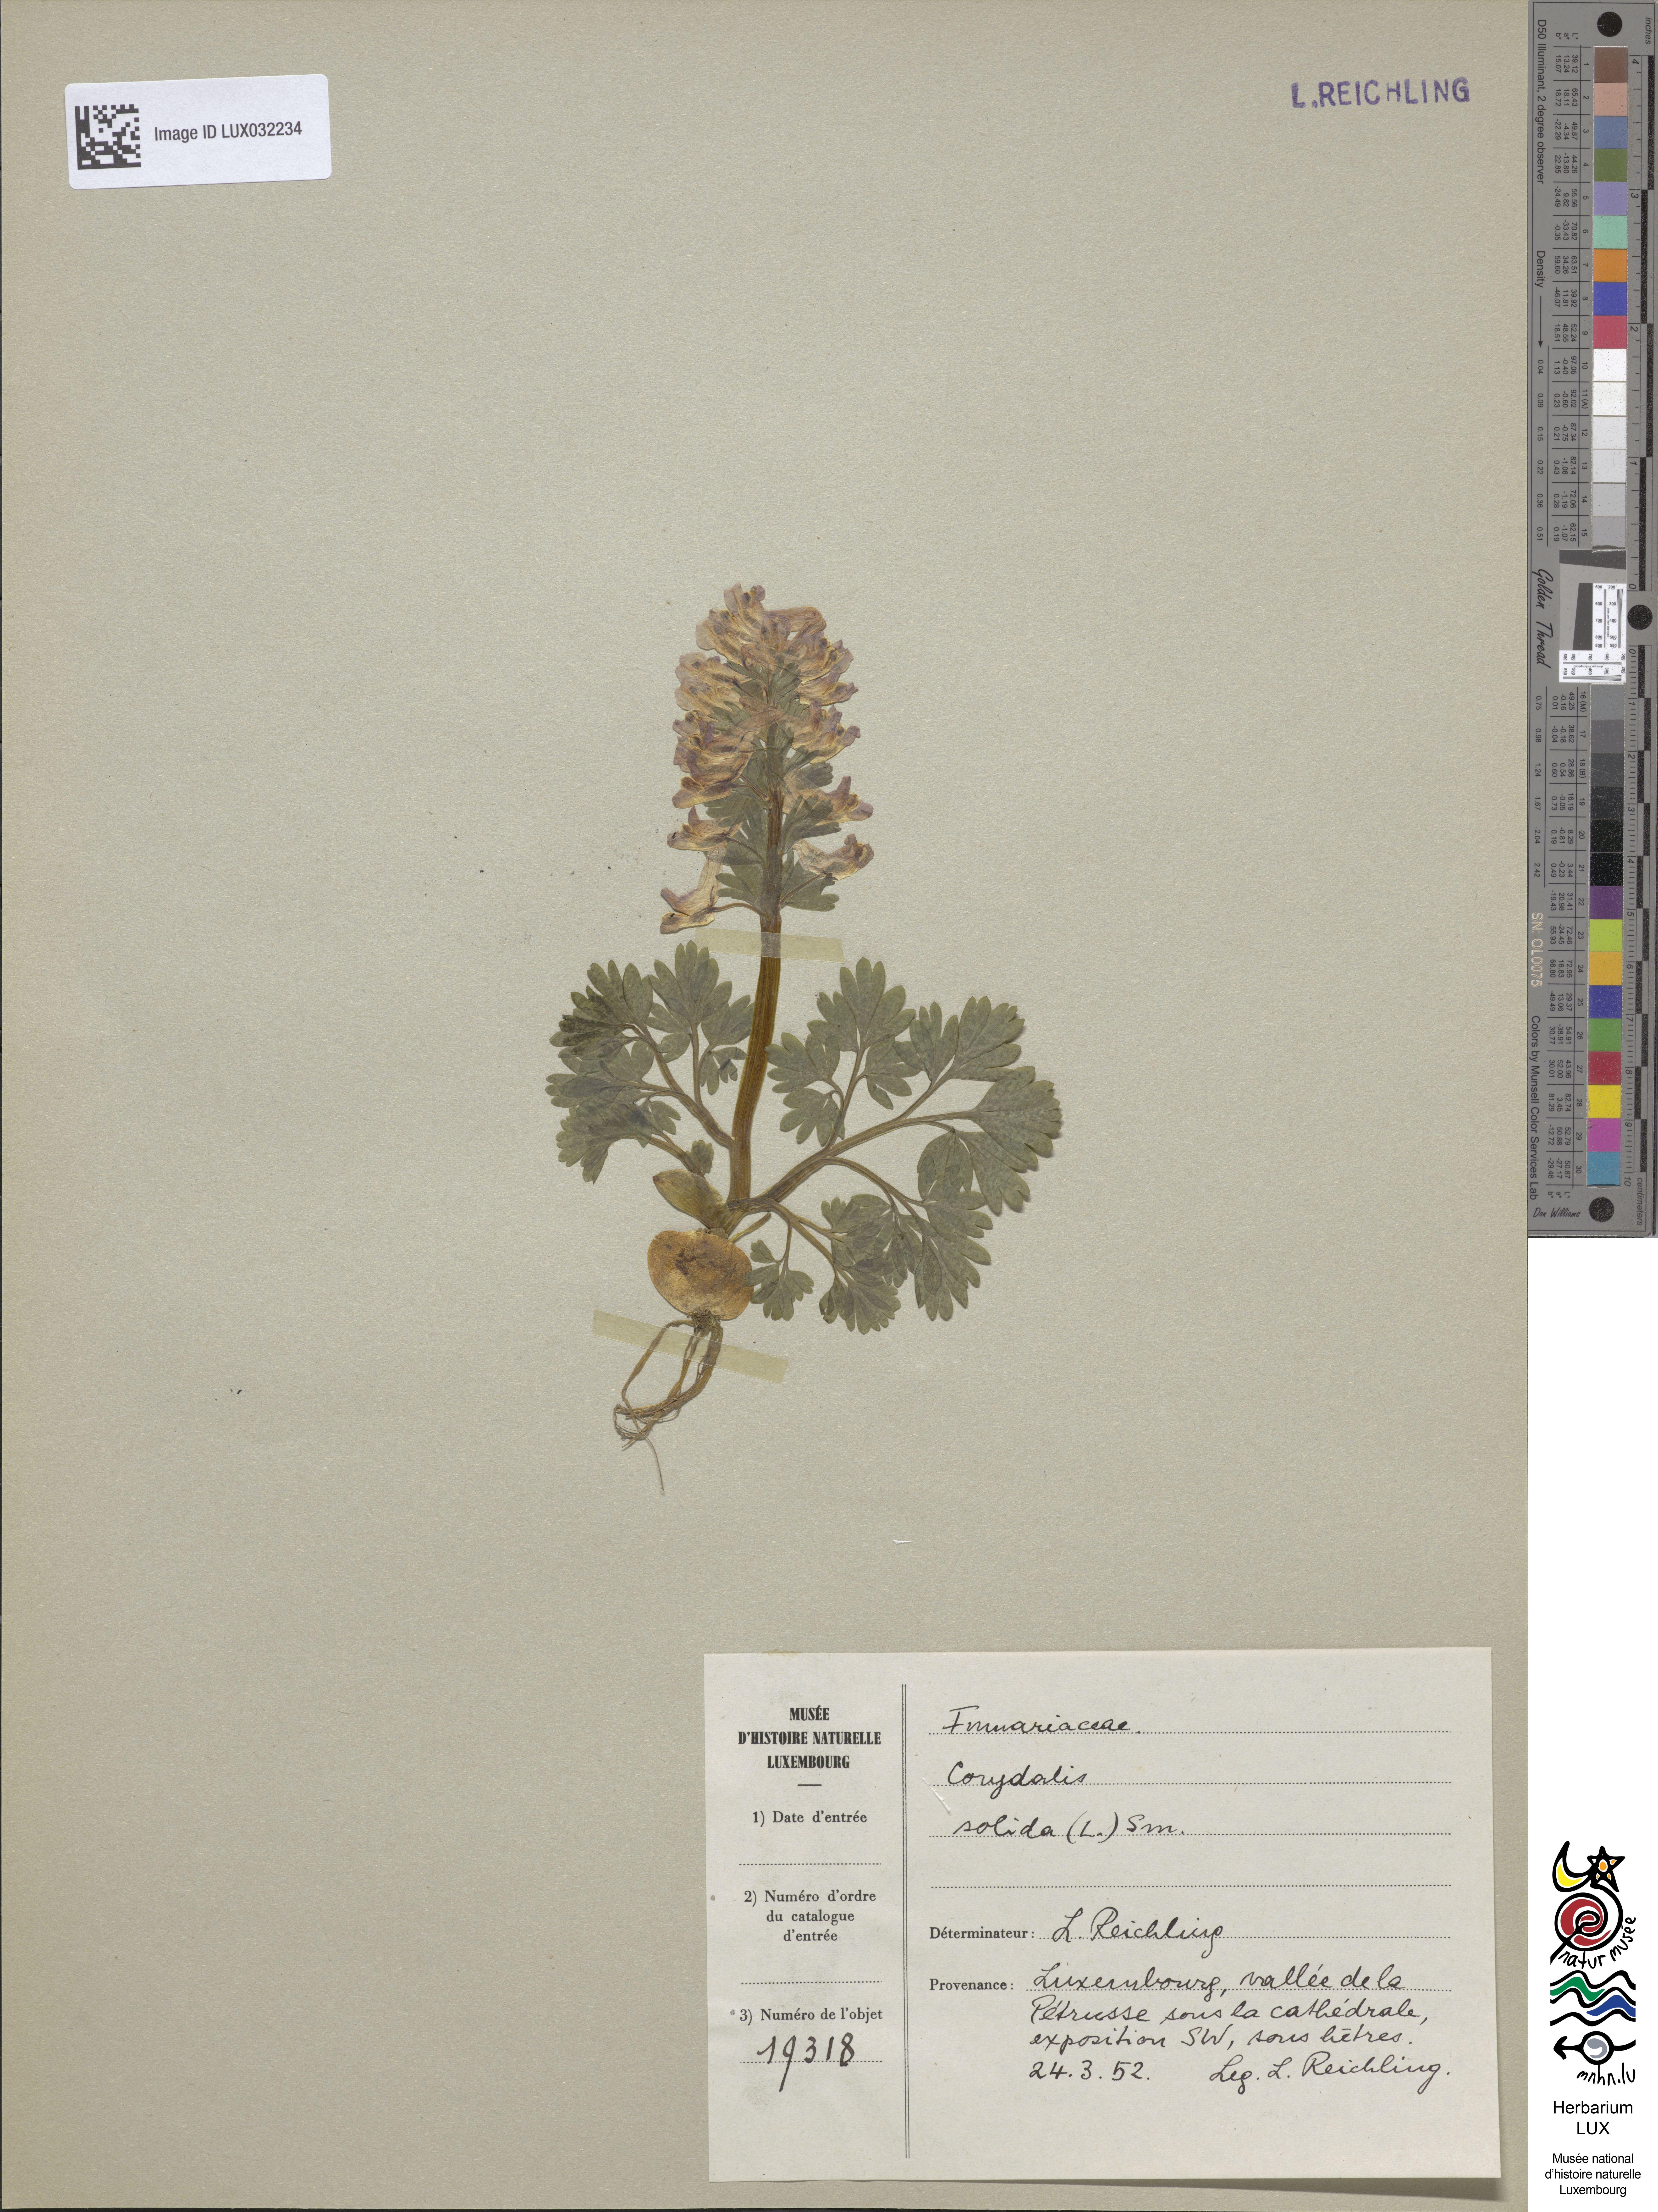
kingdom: Plantae
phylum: Tracheophyta
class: Magnoliopsida
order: Ranunculales
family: Papaveraceae
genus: Corydalis
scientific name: Corydalis solida
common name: Bird-in-a-bush
